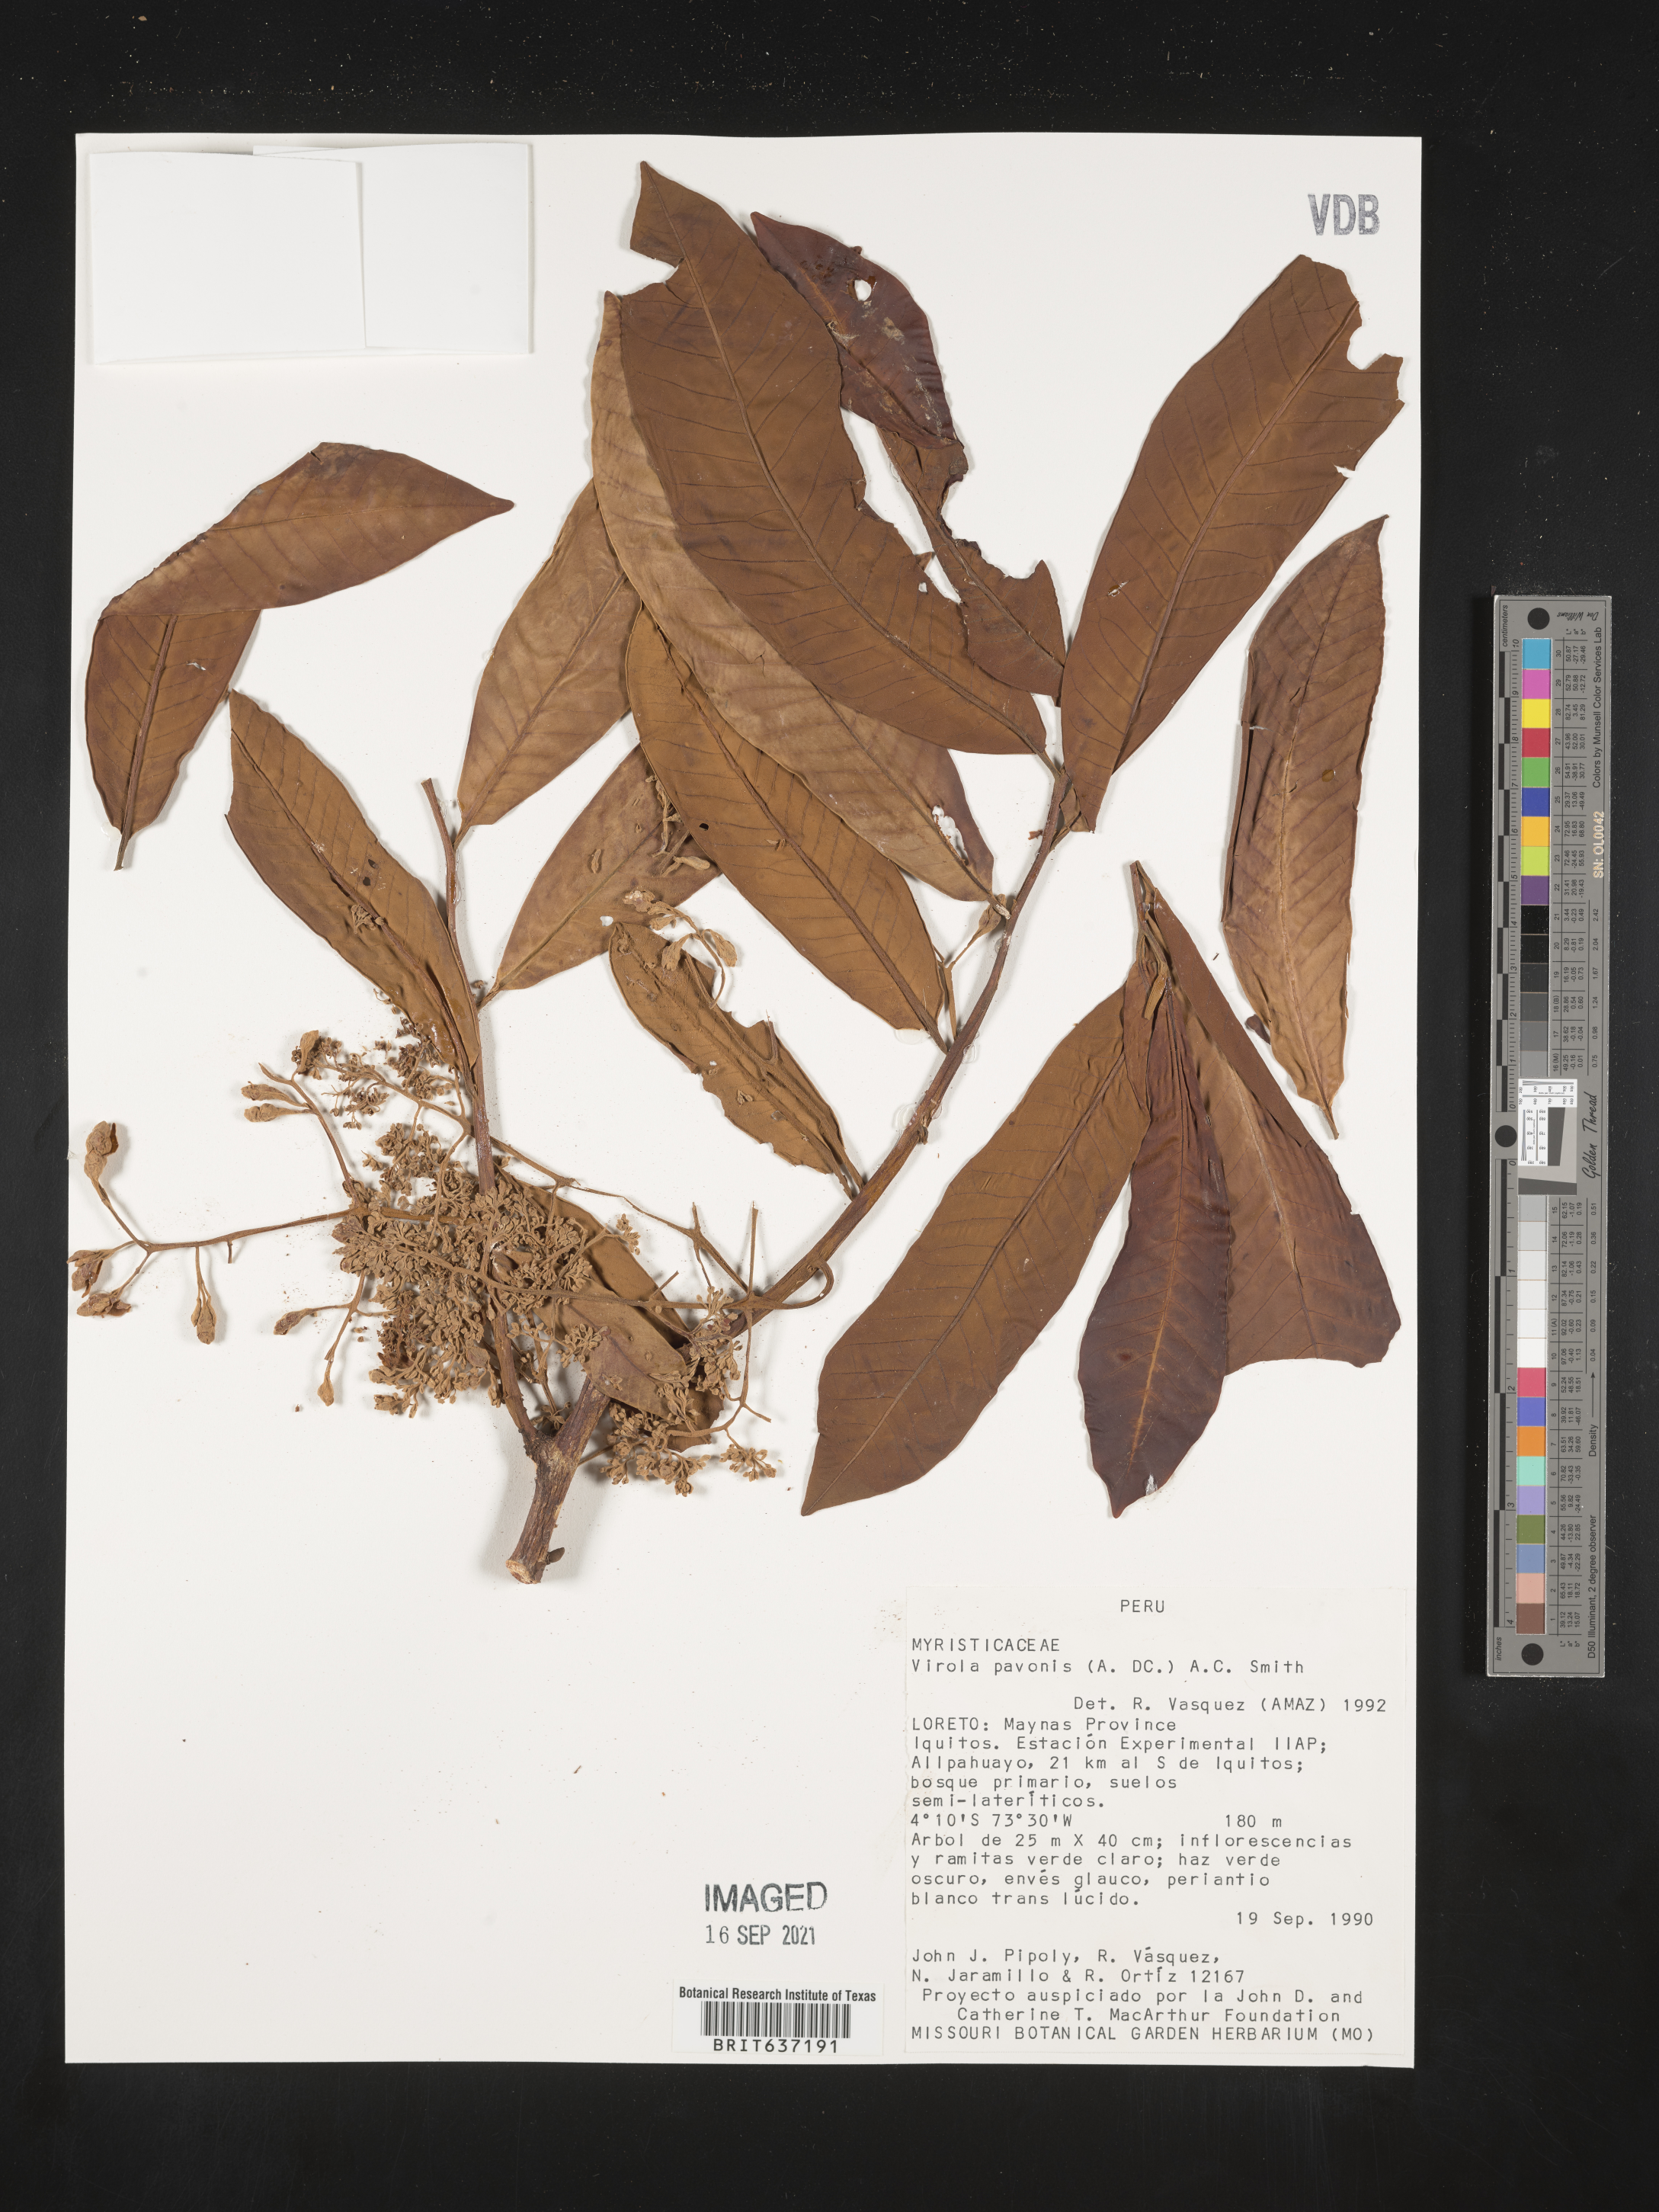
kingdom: Plantae
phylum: Tracheophyta
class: Magnoliopsida
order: Magnoliales
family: Myristicaceae
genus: Virola
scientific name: Virola
